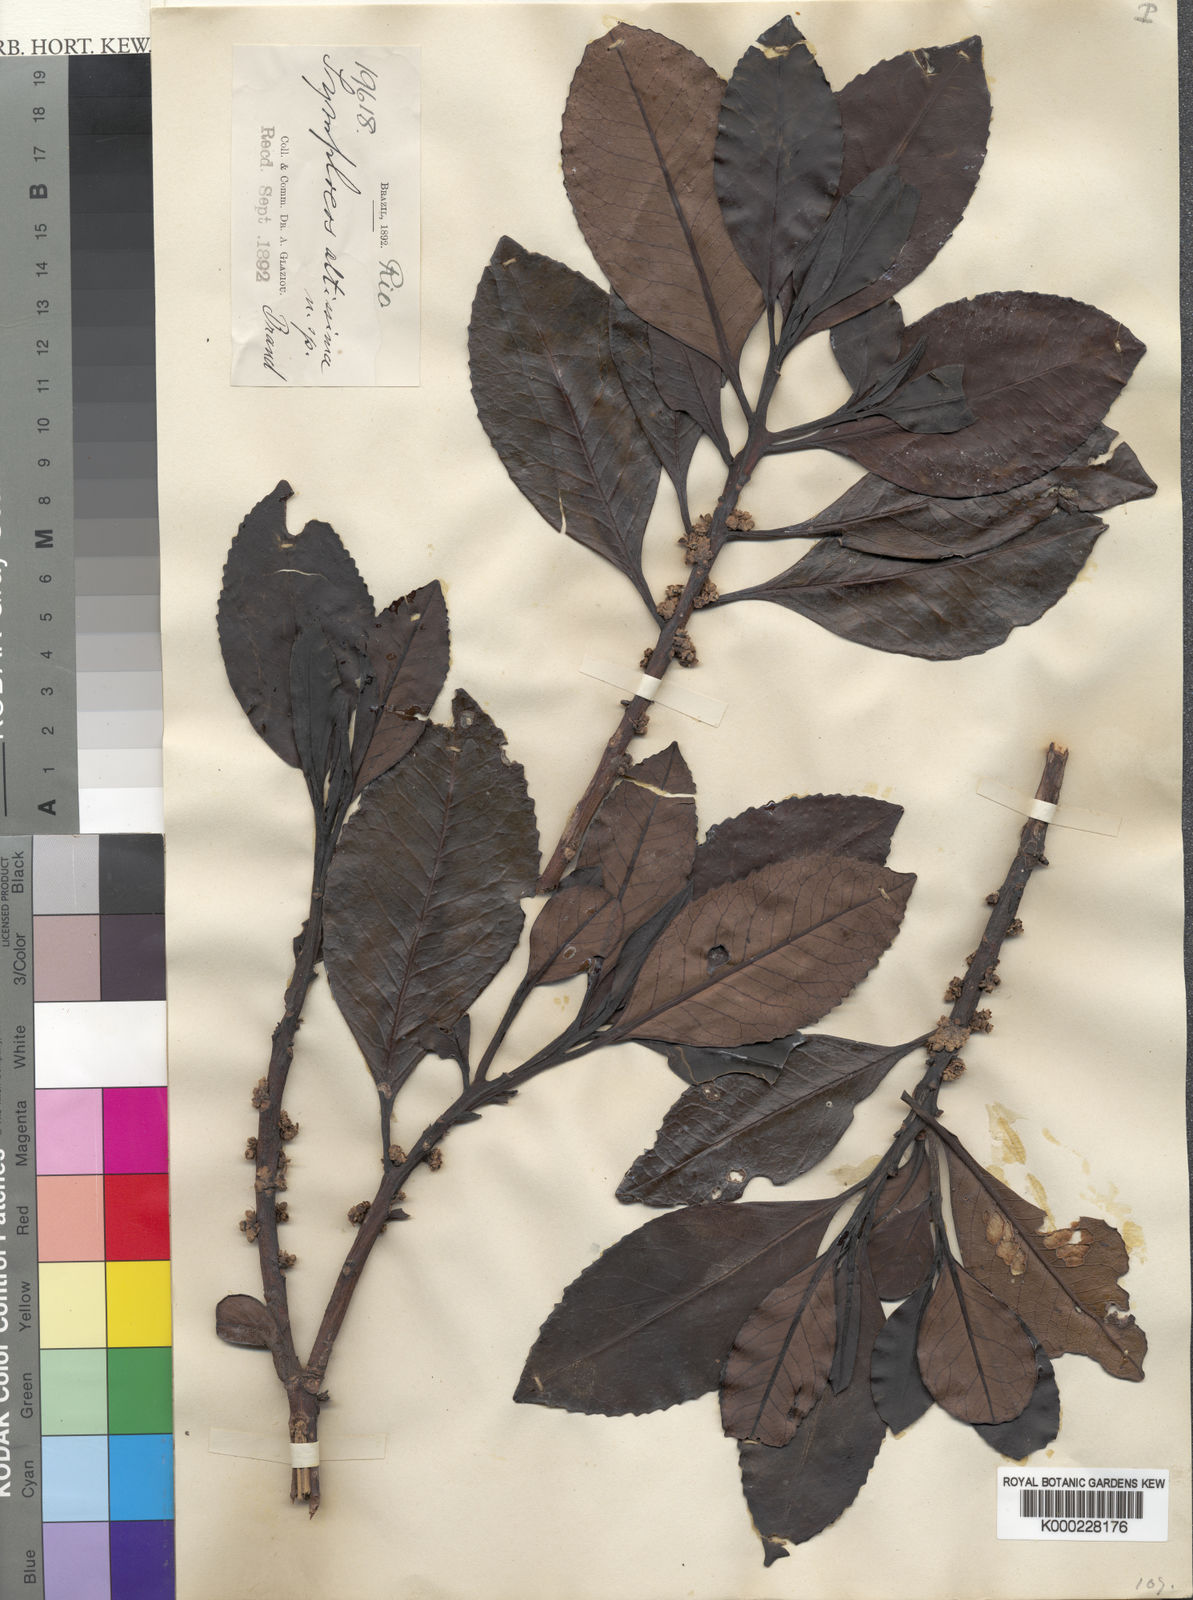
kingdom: Plantae
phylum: Tracheophyta
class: Magnoliopsida
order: Ericales
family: Symplocaceae
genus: Symplocos
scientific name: Symplocos altissima
